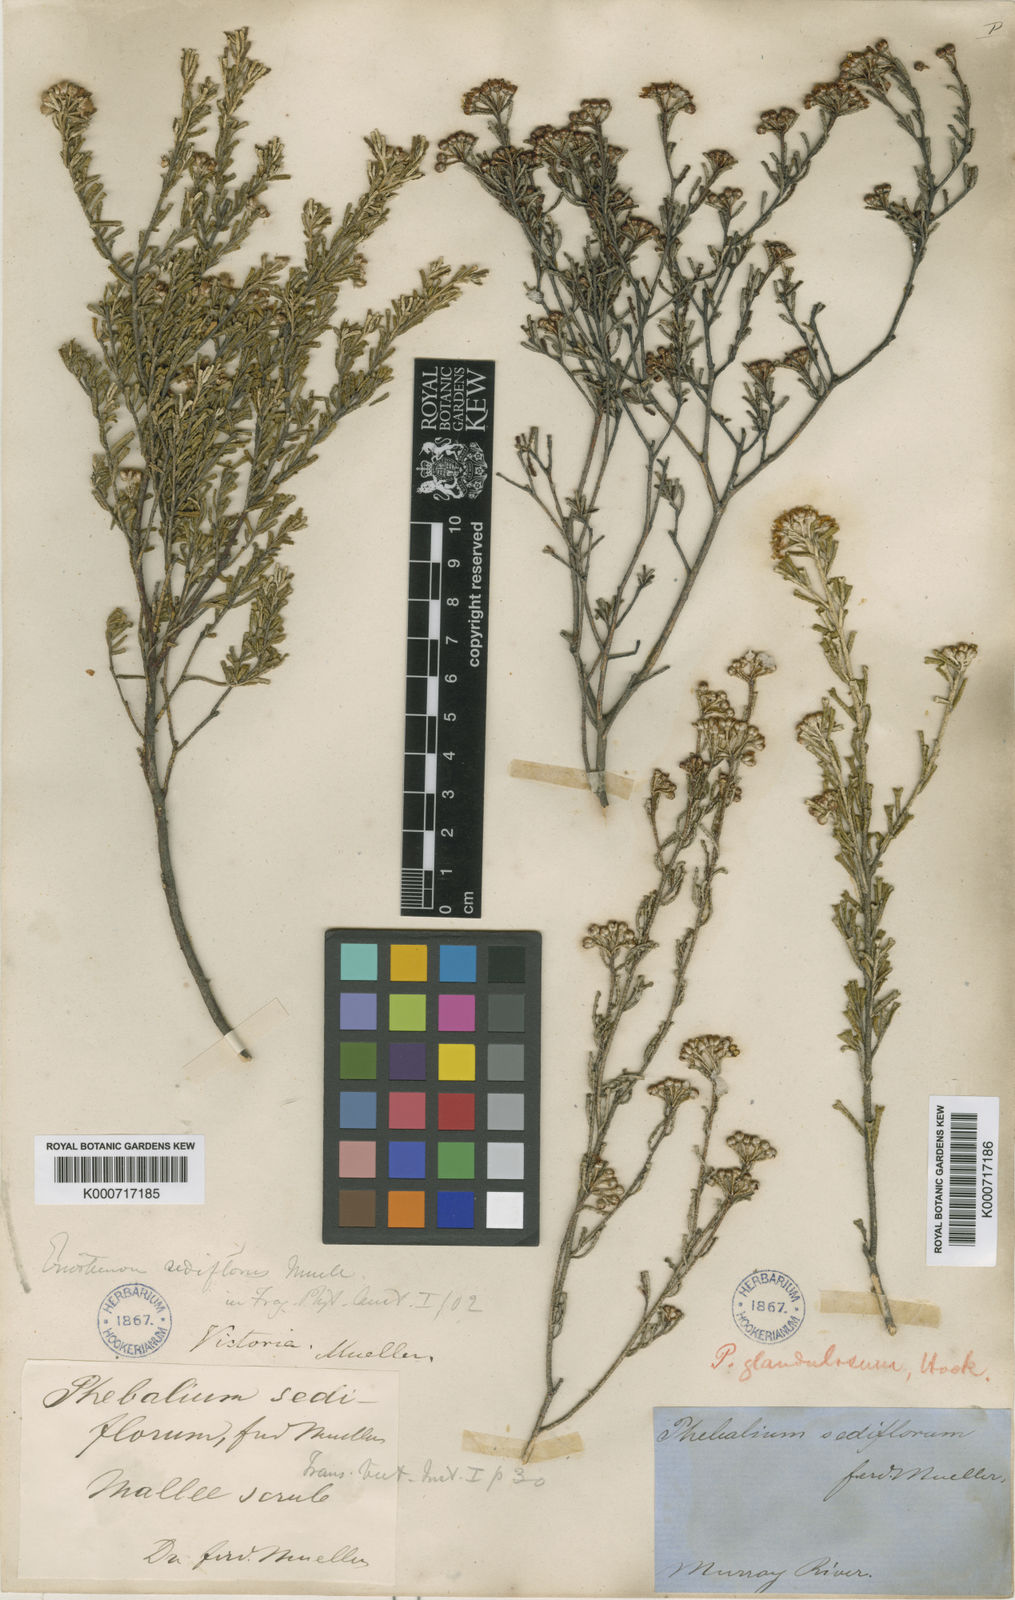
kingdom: Plantae
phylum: Tracheophyta
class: Magnoliopsida
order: Sapindales
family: Rutaceae
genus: Phebalium
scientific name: Phebalium glandulosum
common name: Desert phebalium
